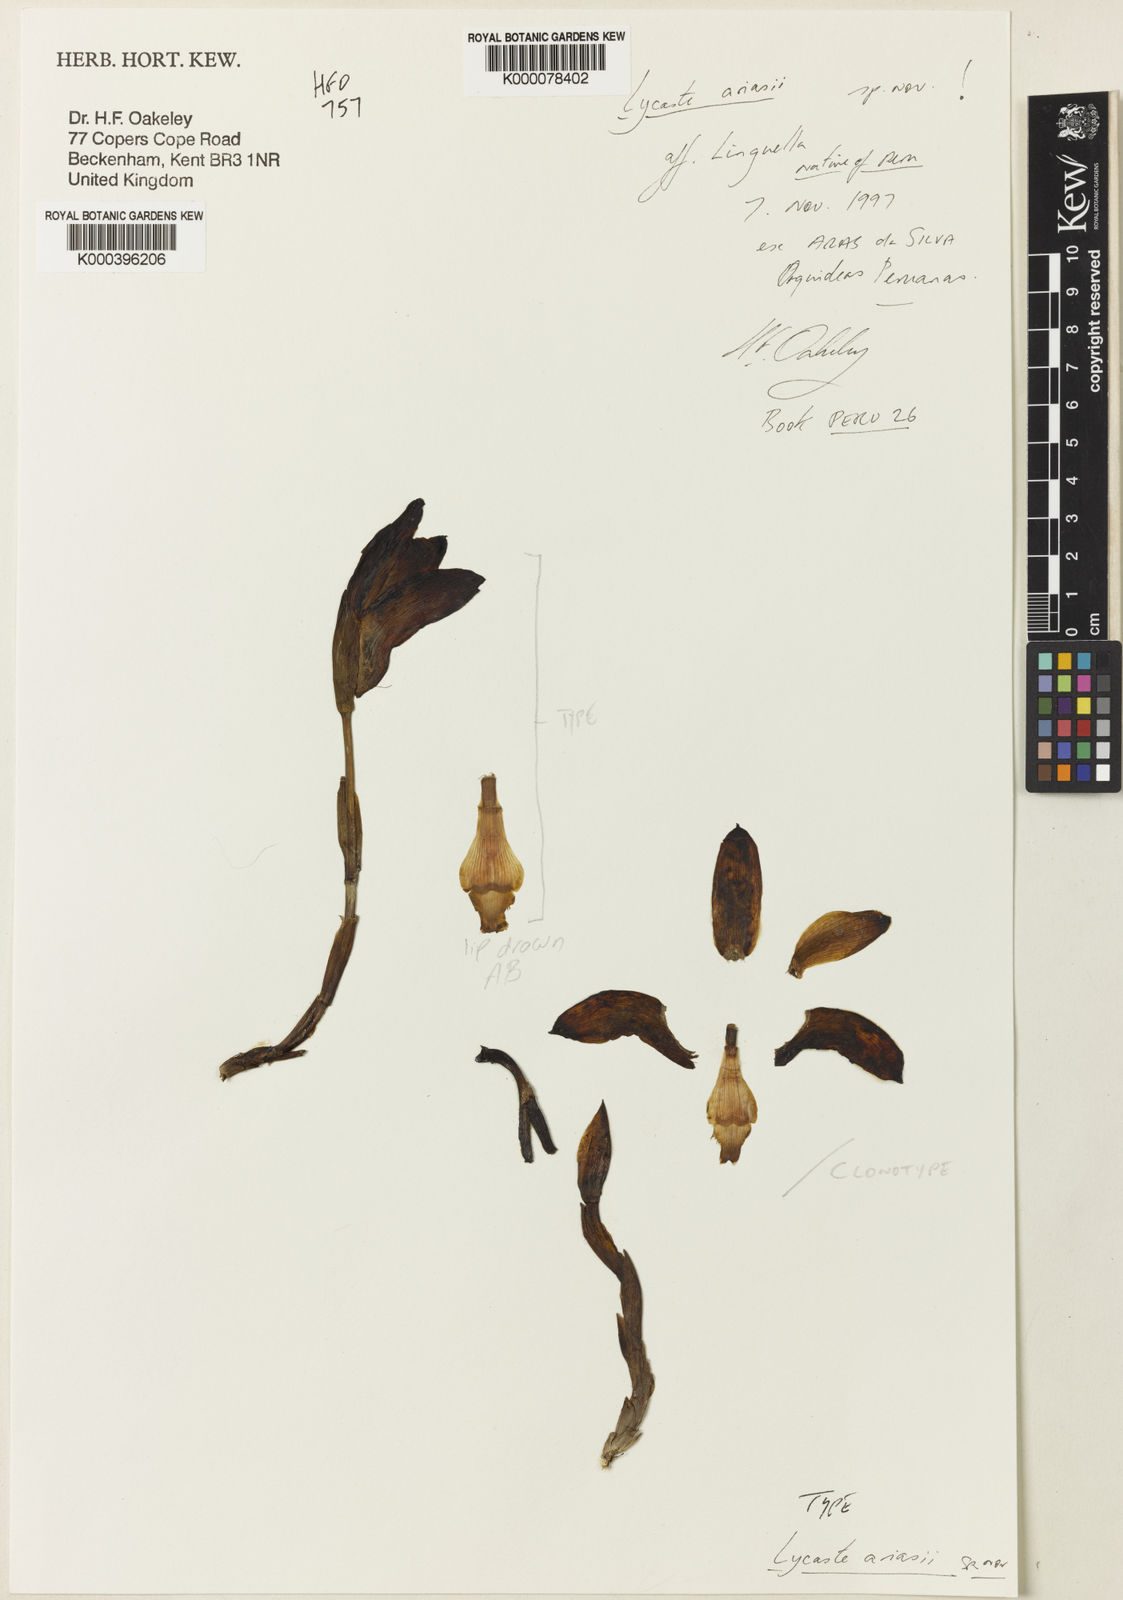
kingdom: Plantae
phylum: Tracheophyta
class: Liliopsida
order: Asparagales
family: Orchidaceae
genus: Ida
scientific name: Ida ariasii
